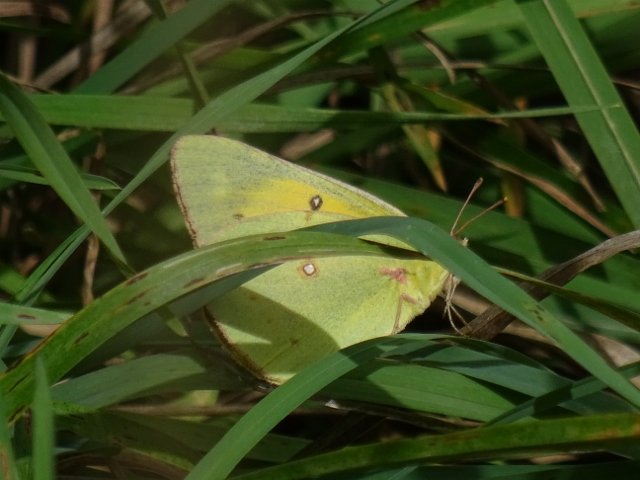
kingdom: Animalia
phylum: Arthropoda
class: Insecta
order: Lepidoptera
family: Pieridae
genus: Colias
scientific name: Colias eurytheme
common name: Orange Sulphur
